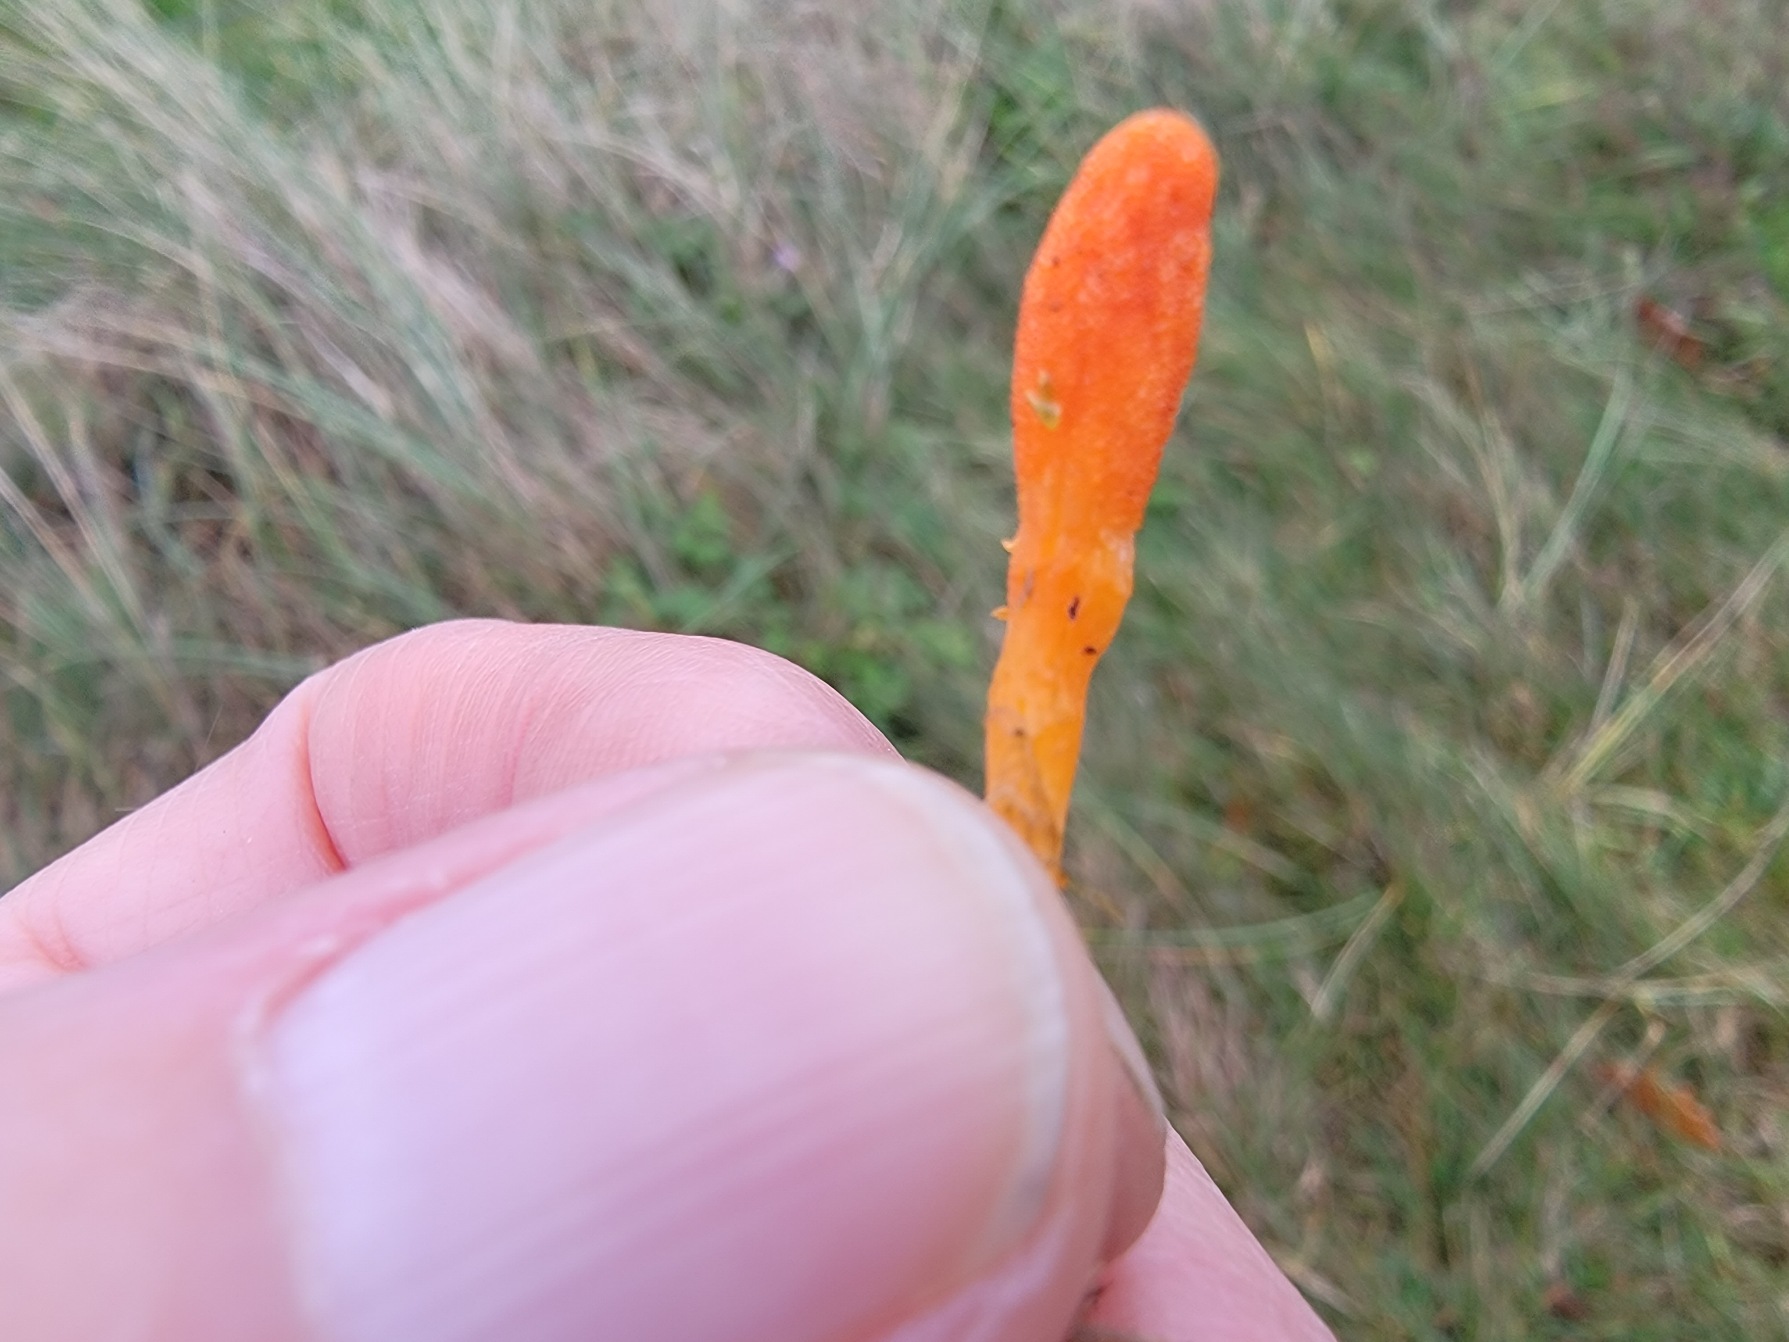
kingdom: Fungi
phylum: Ascomycota
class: Sordariomycetes
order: Hypocreales
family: Cordycipitaceae
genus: Cordyceps
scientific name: Cordyceps militaris
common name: Puppe-snyltekølle
